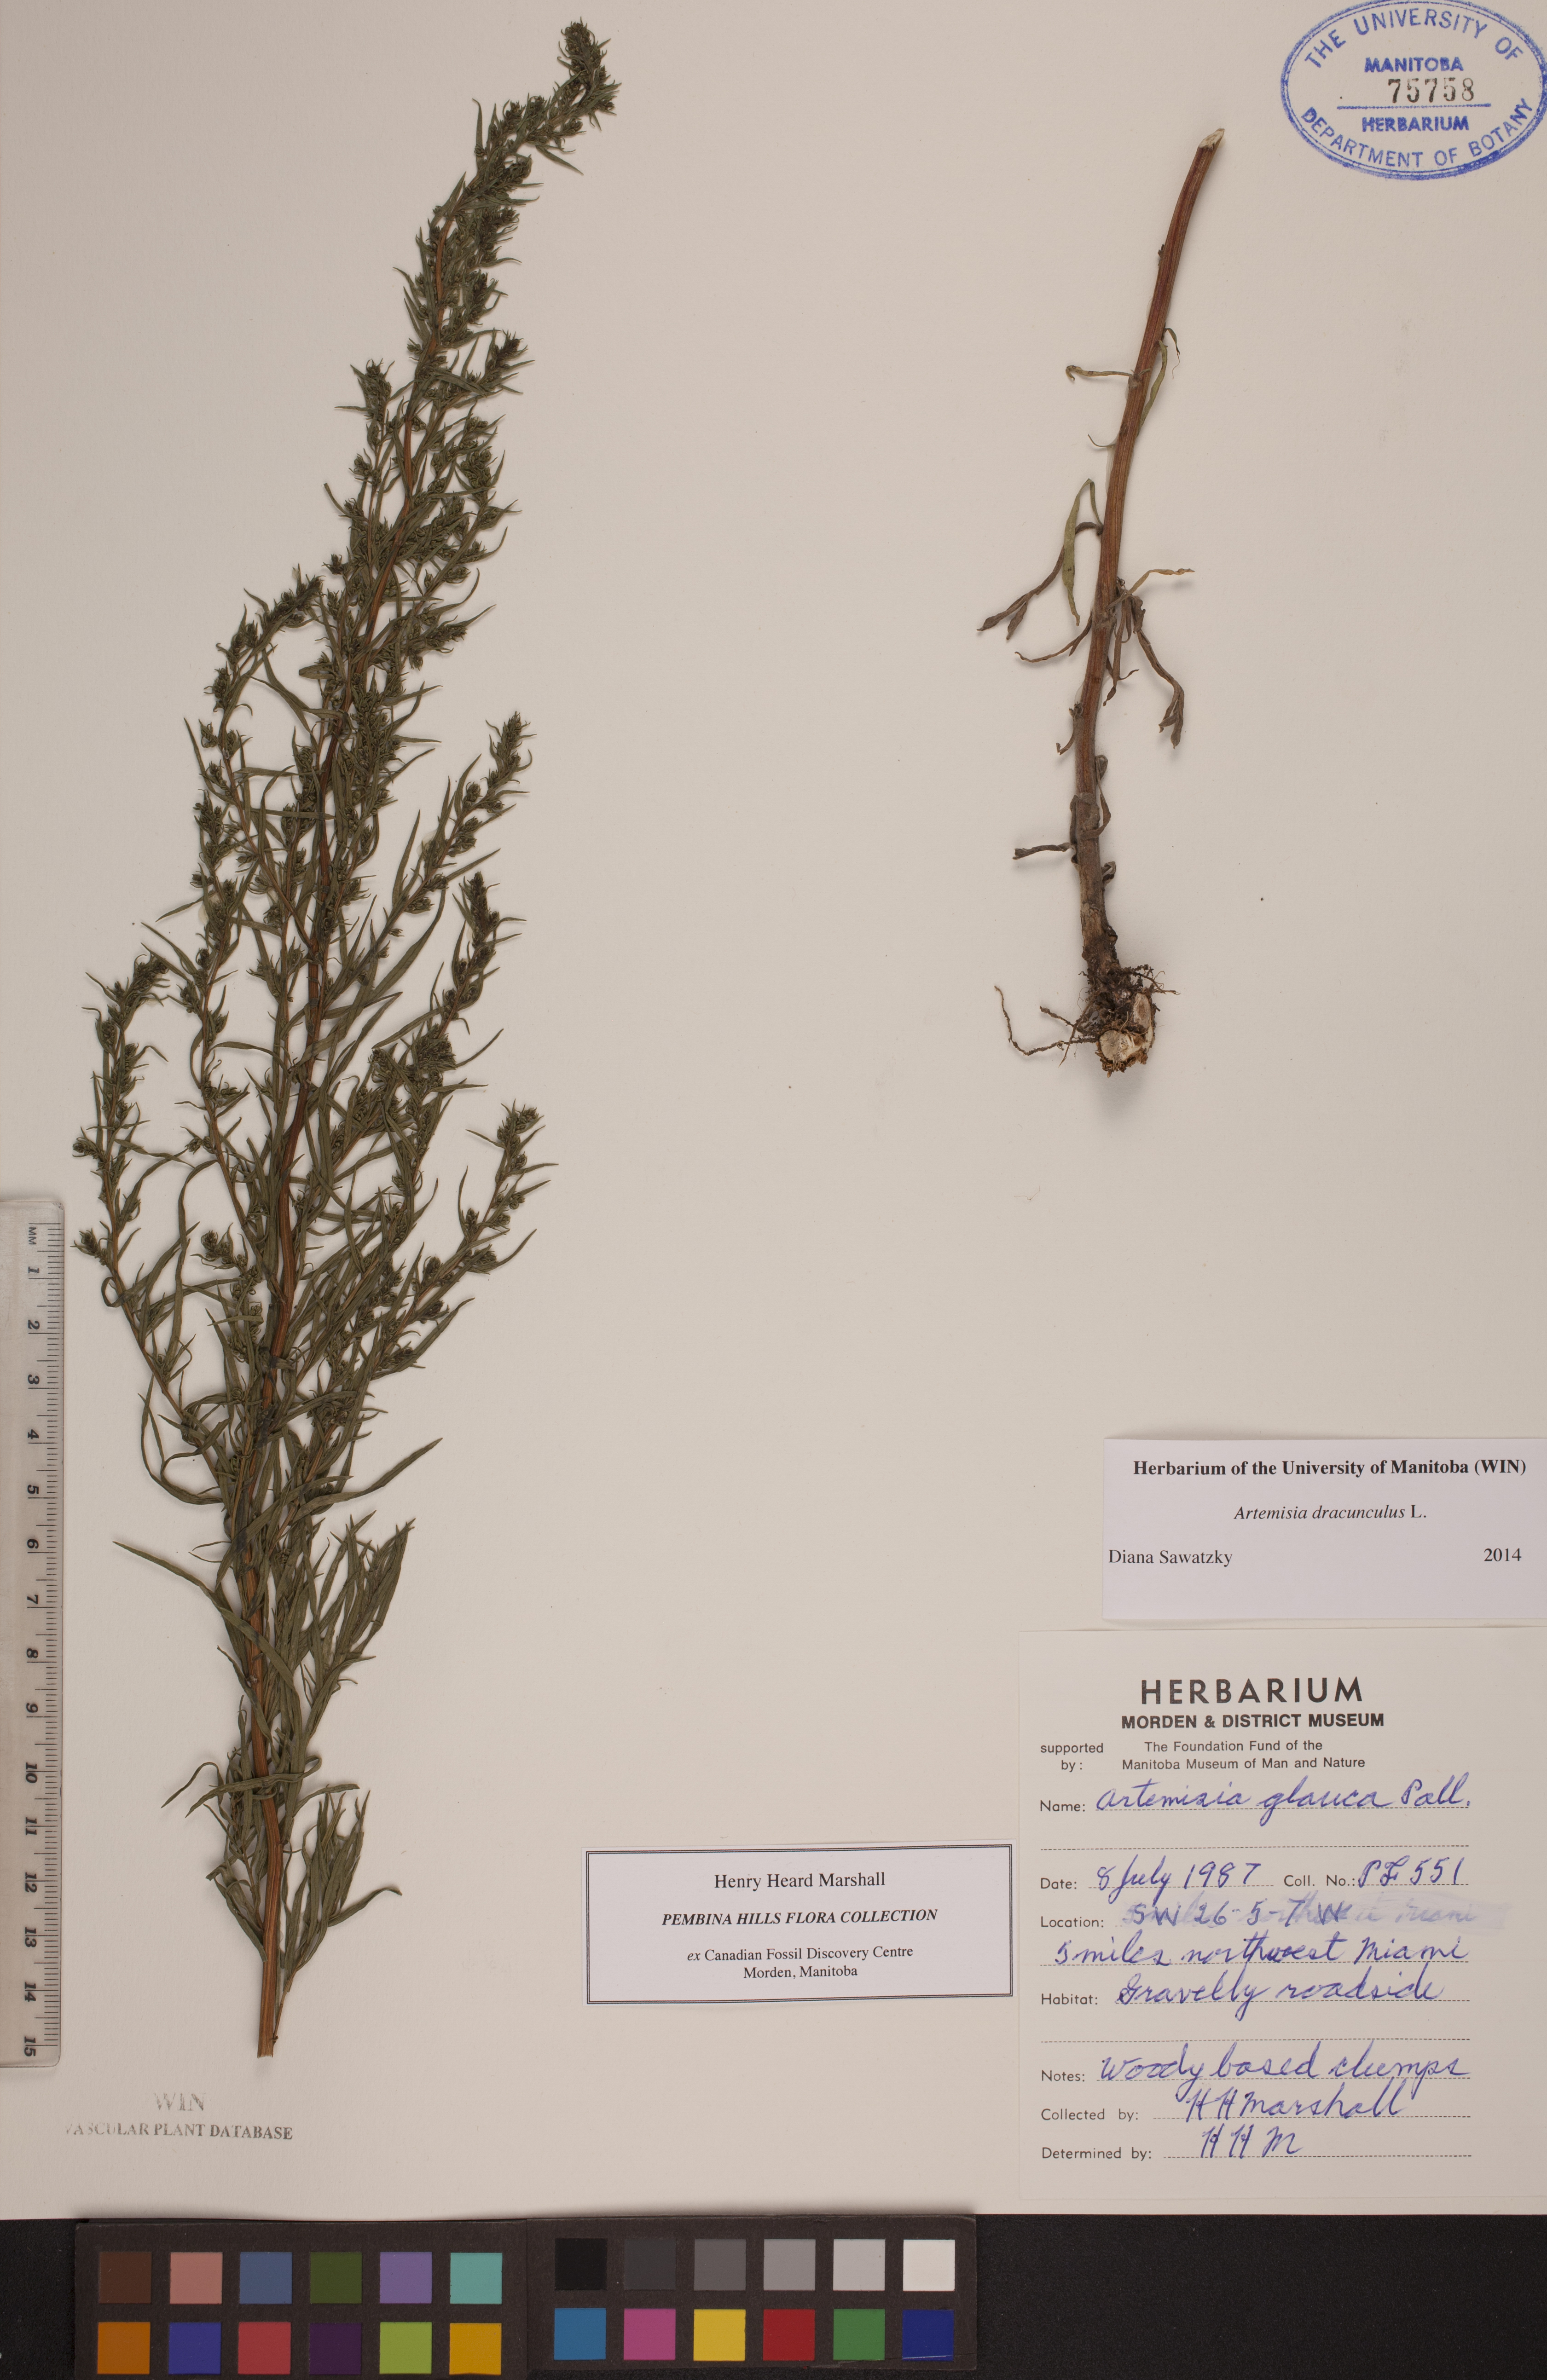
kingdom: Plantae
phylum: Tracheophyta
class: Magnoliopsida
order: Asterales
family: Asteraceae
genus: Artemisia
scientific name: Artemisia dracunculus
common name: Tarragon
